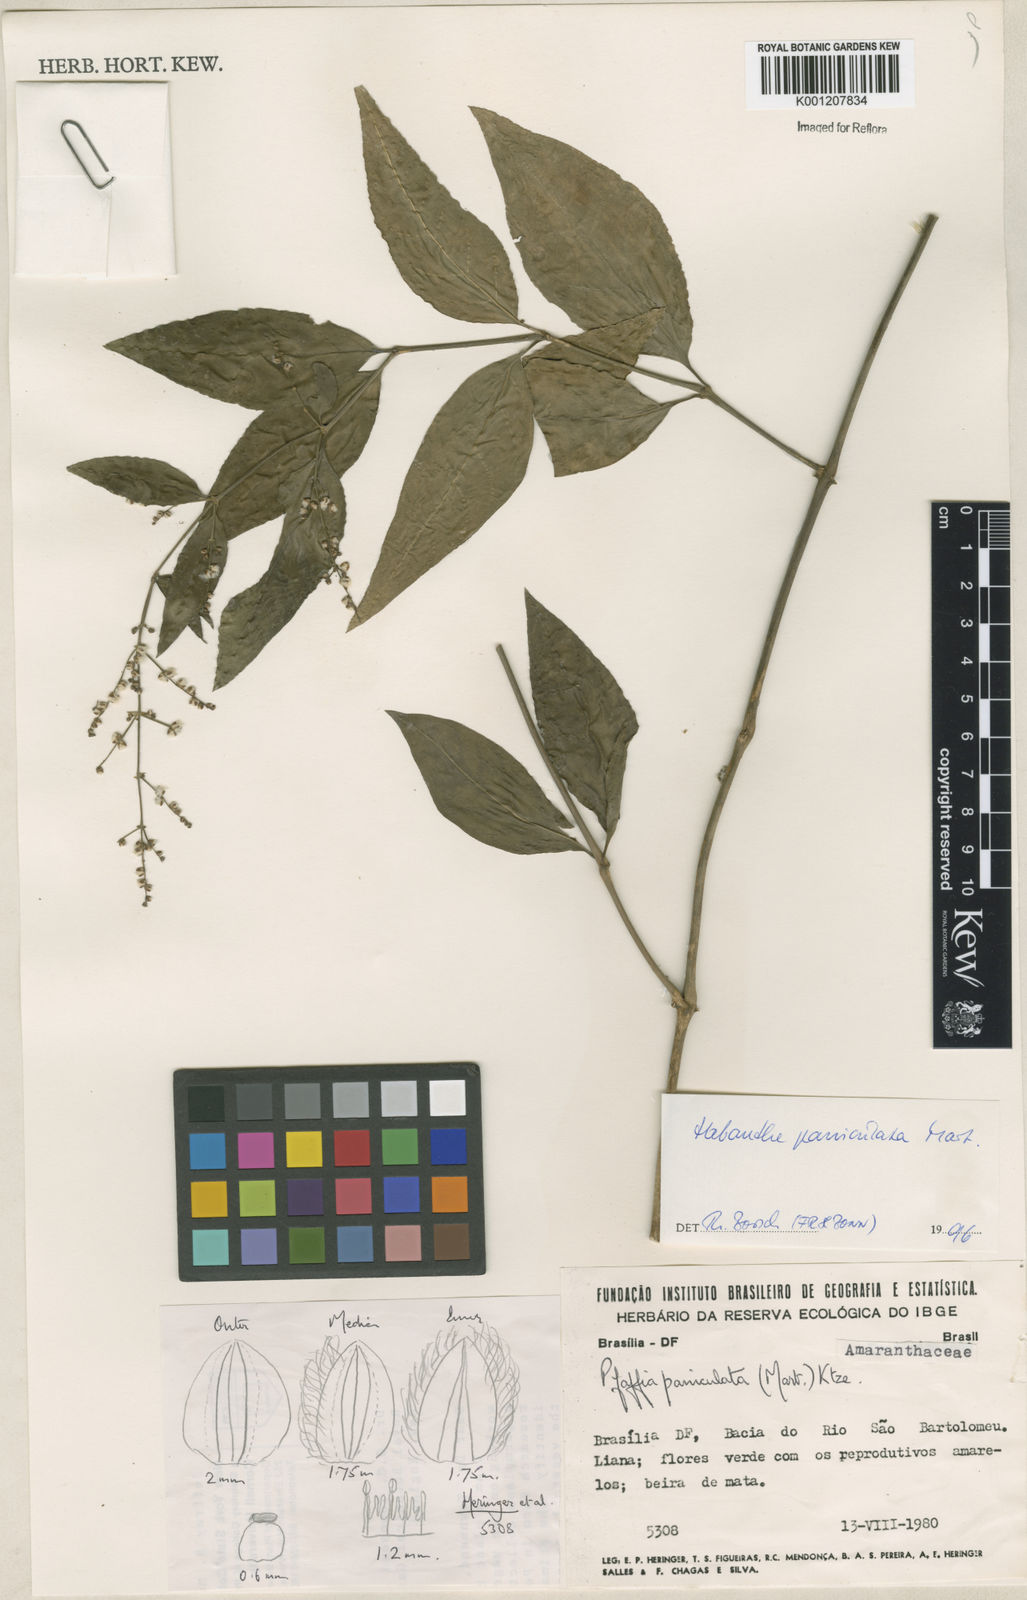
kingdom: Plantae
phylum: Tracheophyta
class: Magnoliopsida
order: Caryophyllales
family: Amaranthaceae
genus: Hebanthe
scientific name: Hebanthe erianthos
